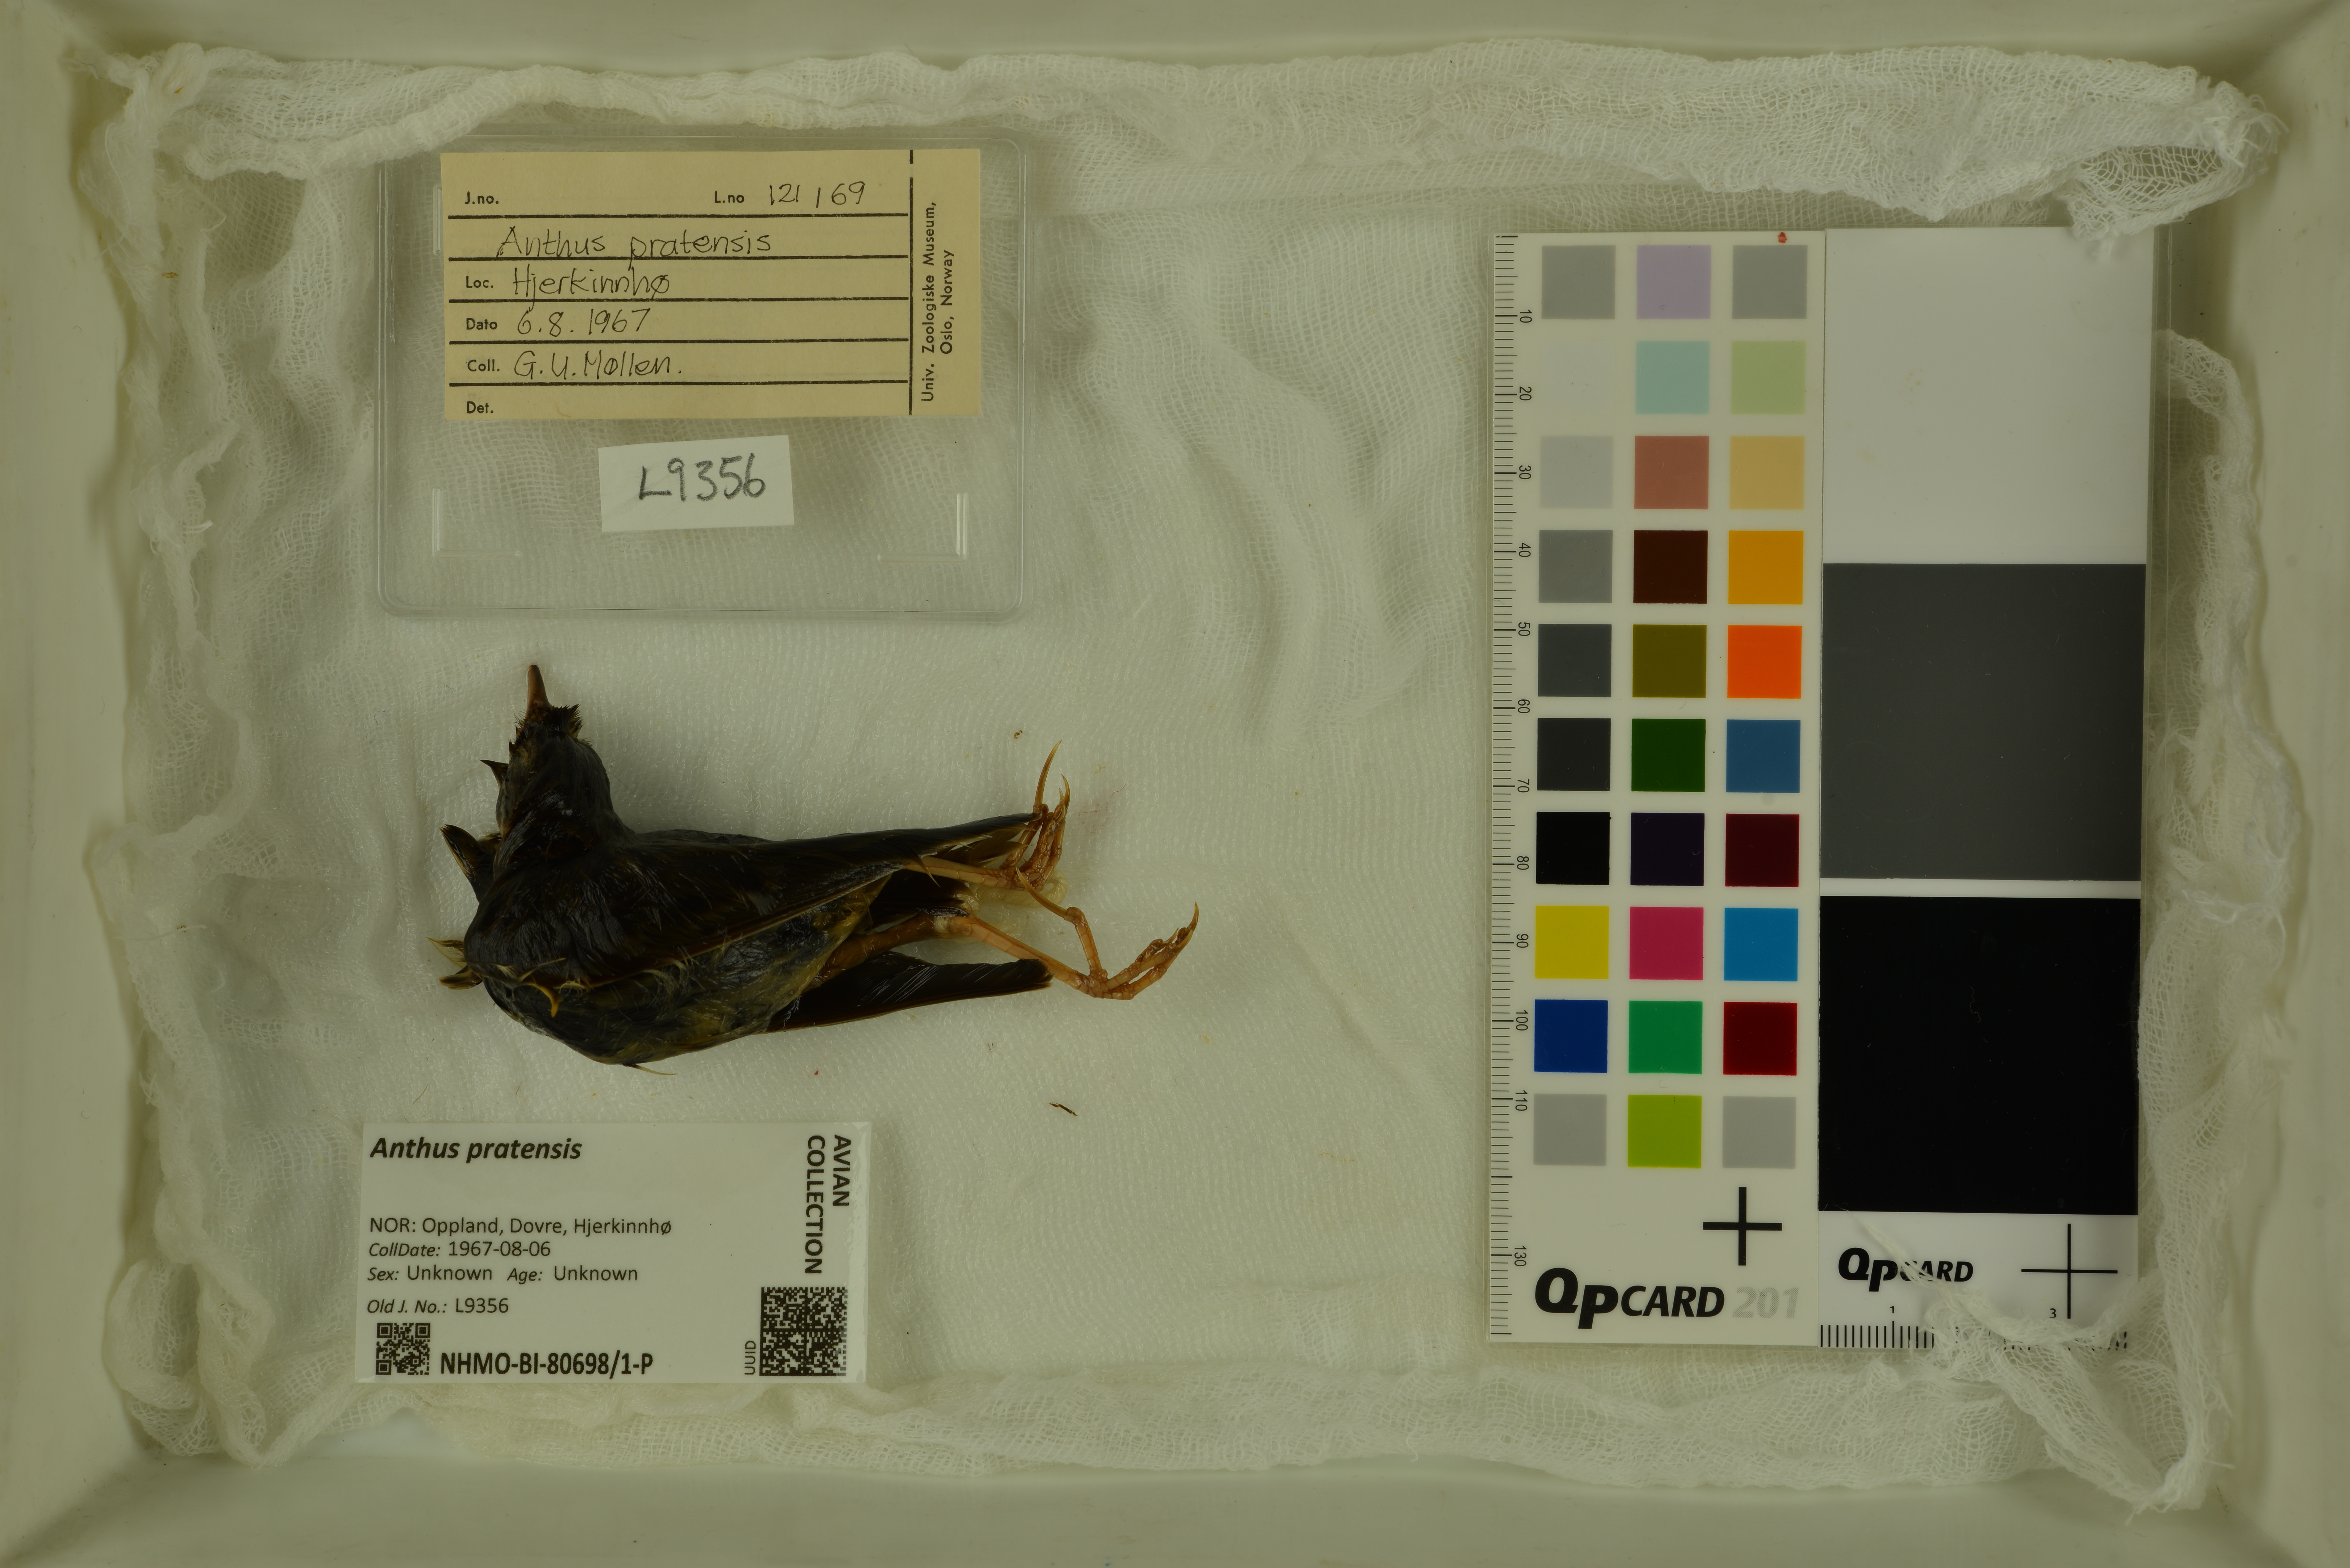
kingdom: Animalia
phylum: Chordata
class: Aves
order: Passeriformes
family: Motacillidae
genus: Anthus
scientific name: Anthus pratensis
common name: Meadow pipit
